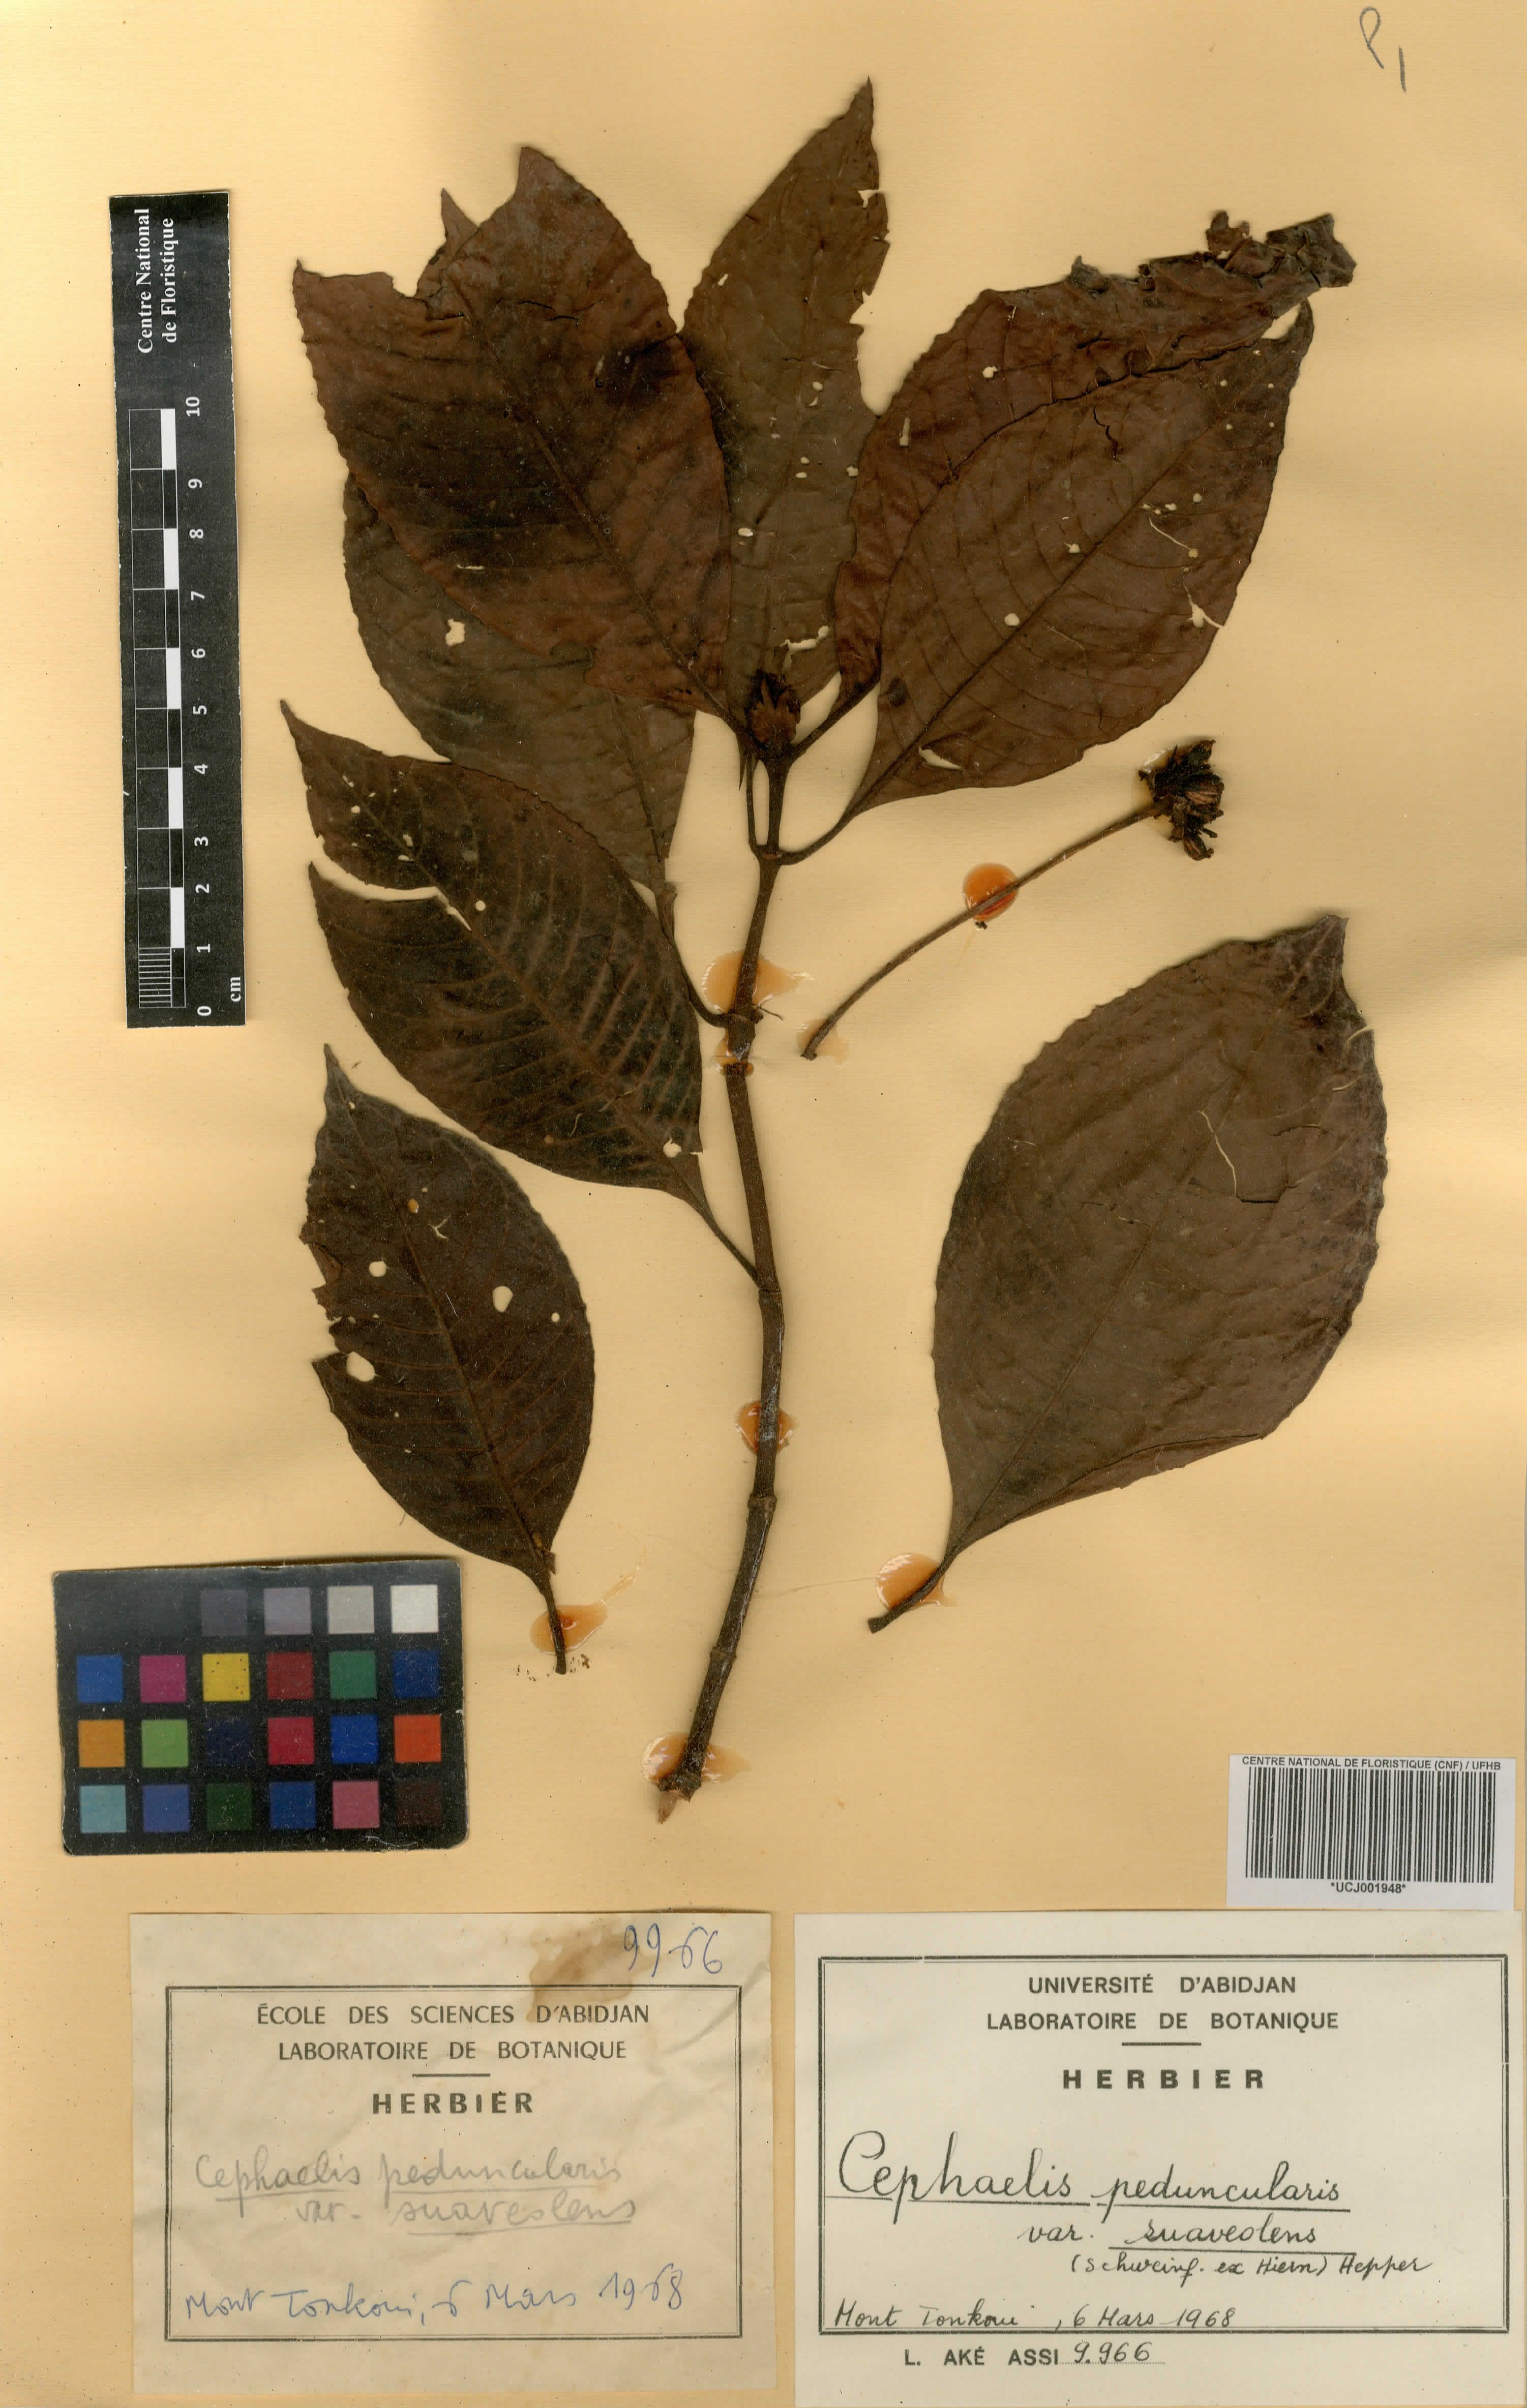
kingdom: Plantae
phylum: Tracheophyta
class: Magnoliopsida
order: Gentianales
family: Rubiaceae
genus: Psychotria
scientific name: Psychotria peduncularis
